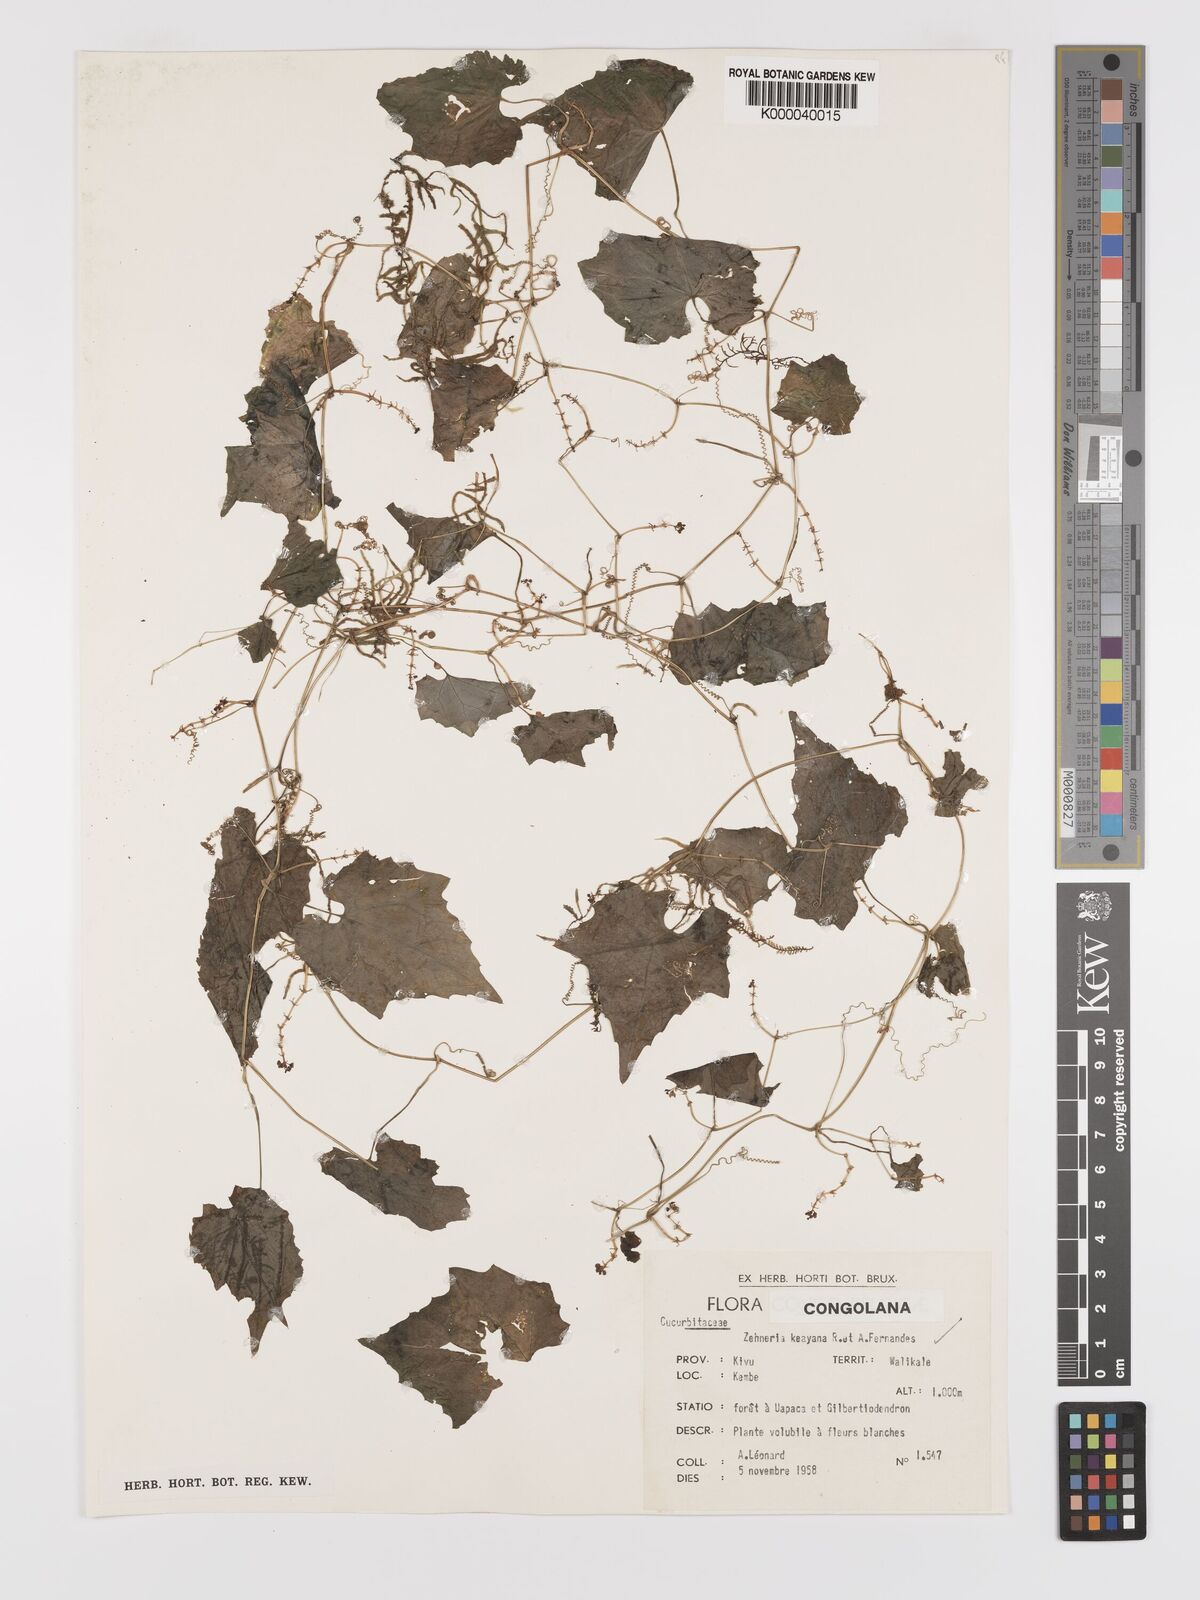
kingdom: Plantae
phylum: Tracheophyta
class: Magnoliopsida
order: Cucurbitales
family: Cucurbitaceae
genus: Zehneria
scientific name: Zehneria keayana
